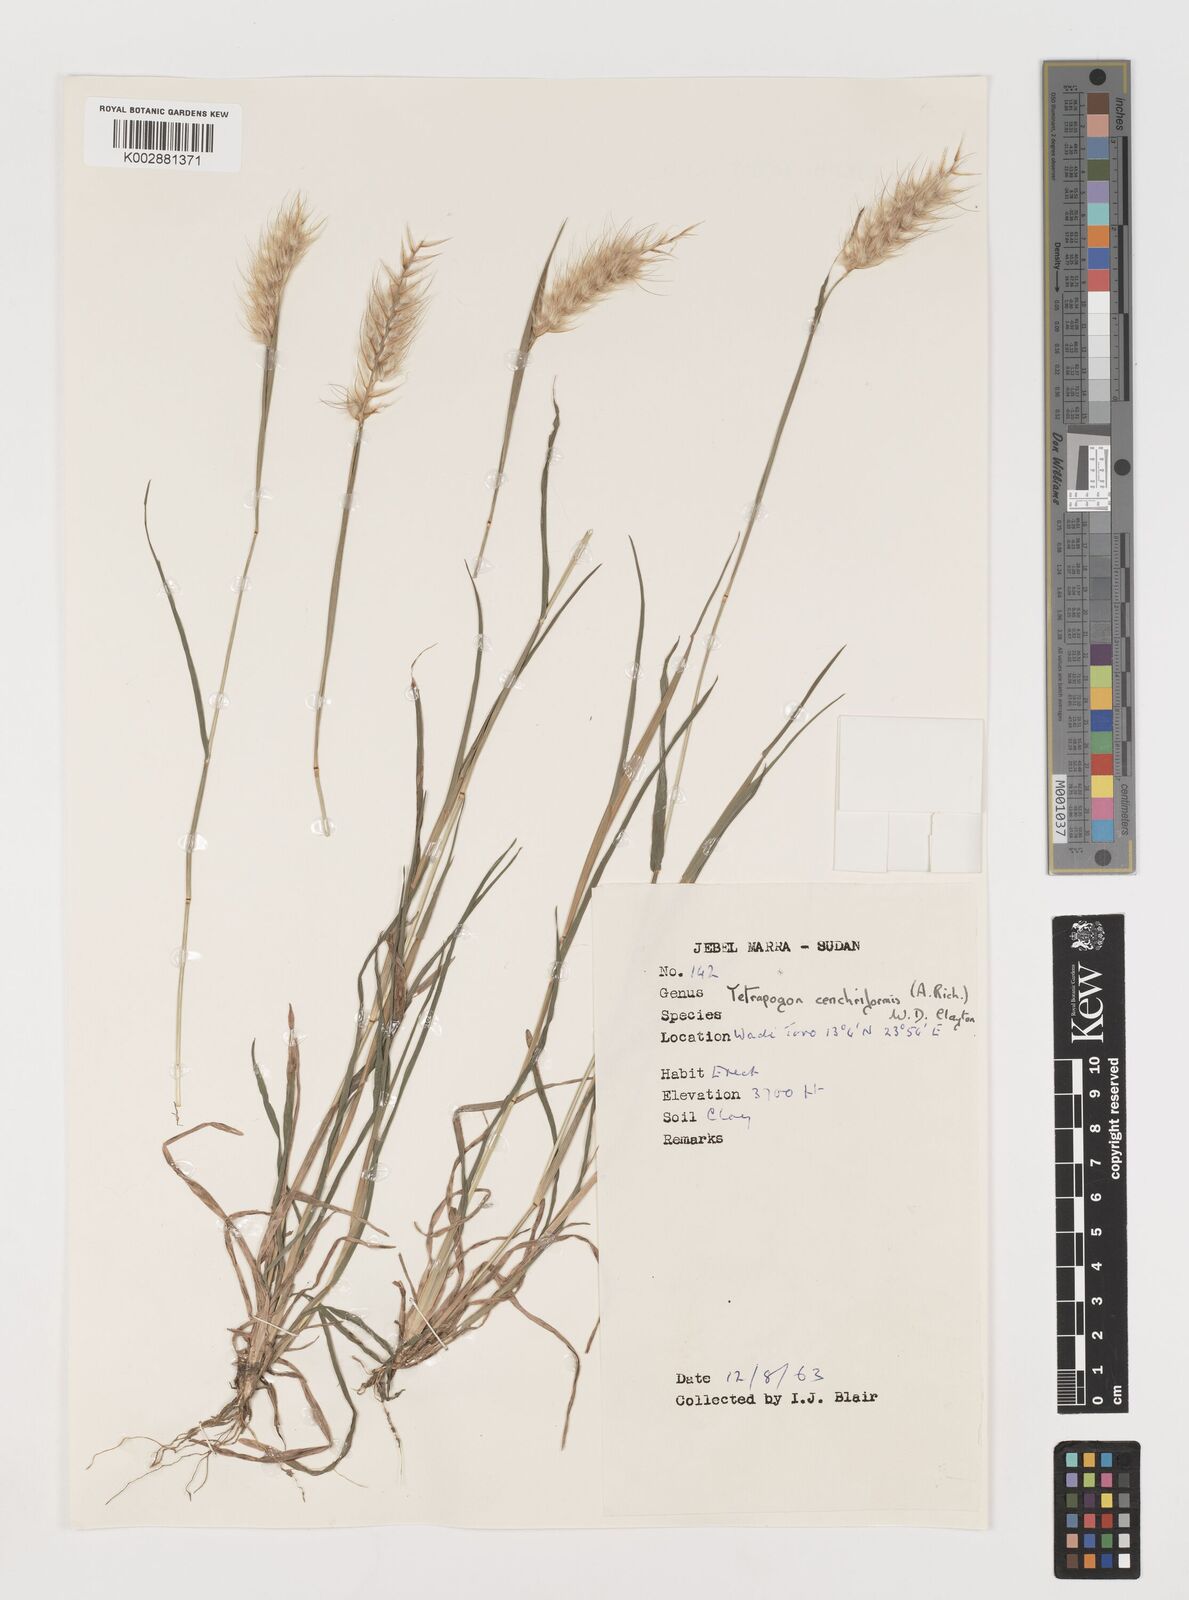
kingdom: Plantae
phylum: Tracheophyta
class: Liliopsida
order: Poales
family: Poaceae
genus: Tetrapogon
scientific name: Tetrapogon cenchriformis
